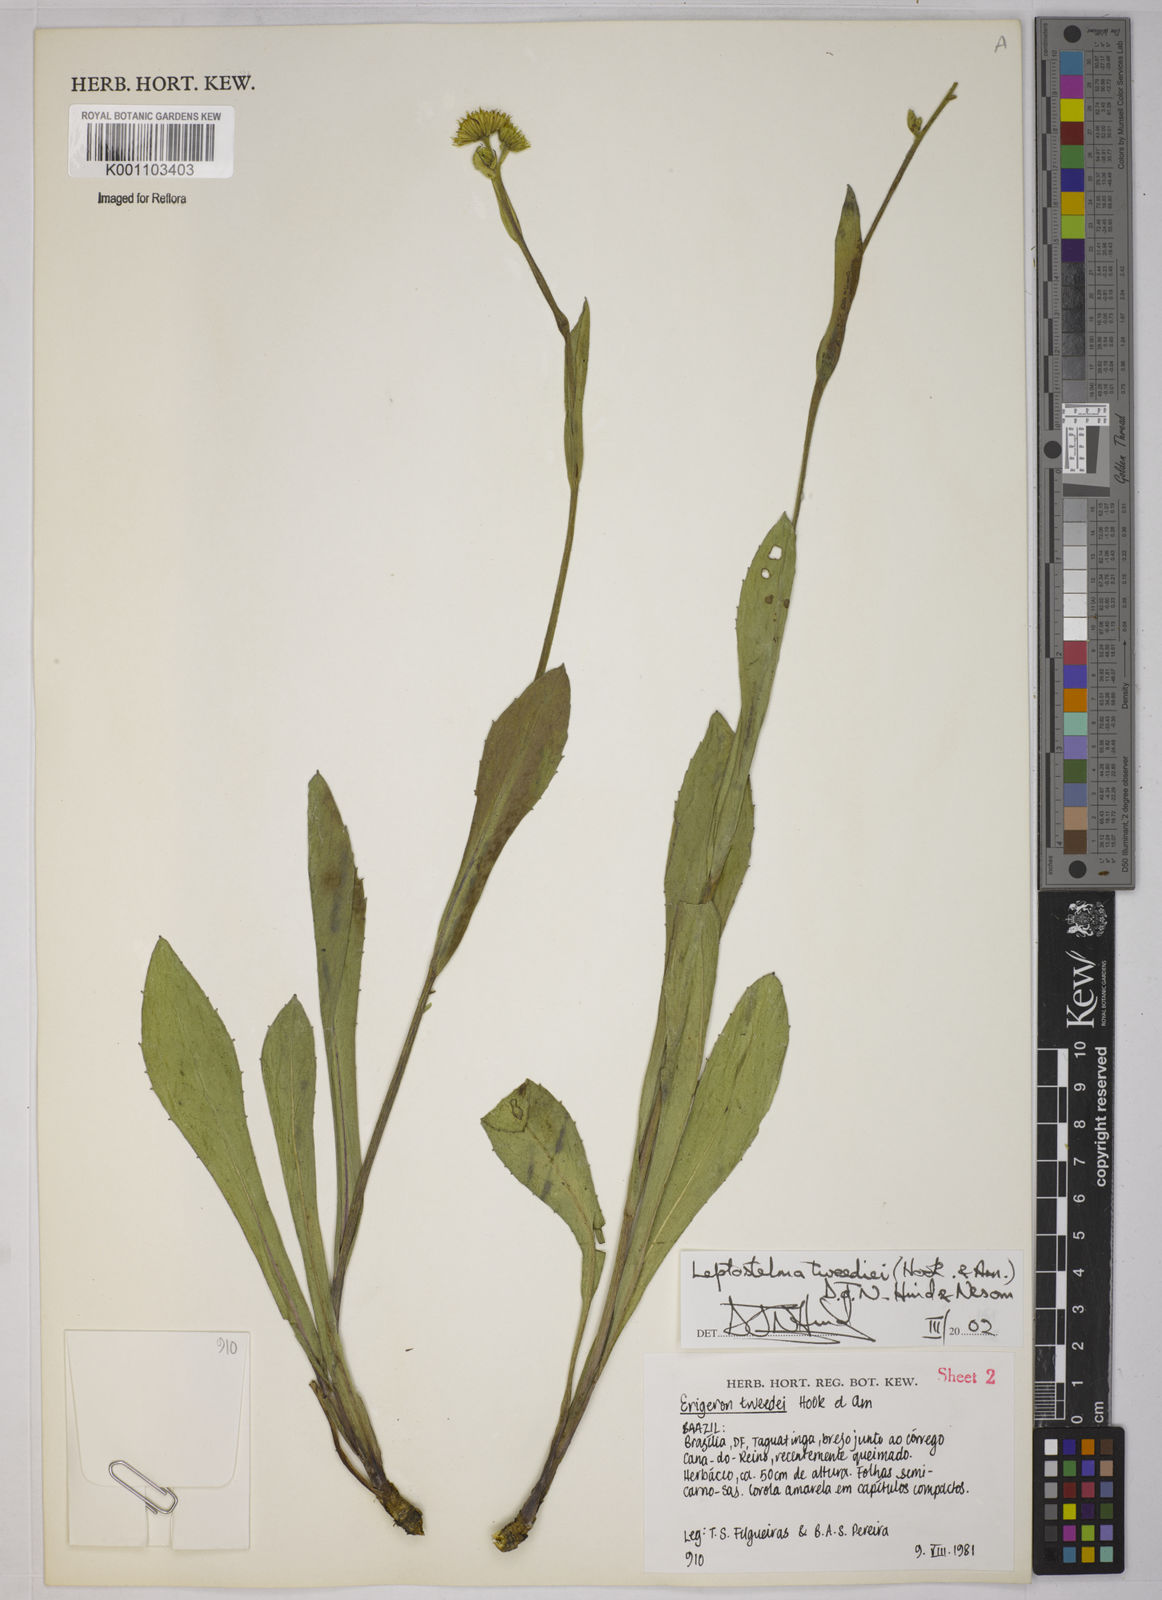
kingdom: Plantae
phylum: Tracheophyta
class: Magnoliopsida
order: Asterales
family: Asteraceae
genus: Leptostelma
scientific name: Leptostelma tweediei
